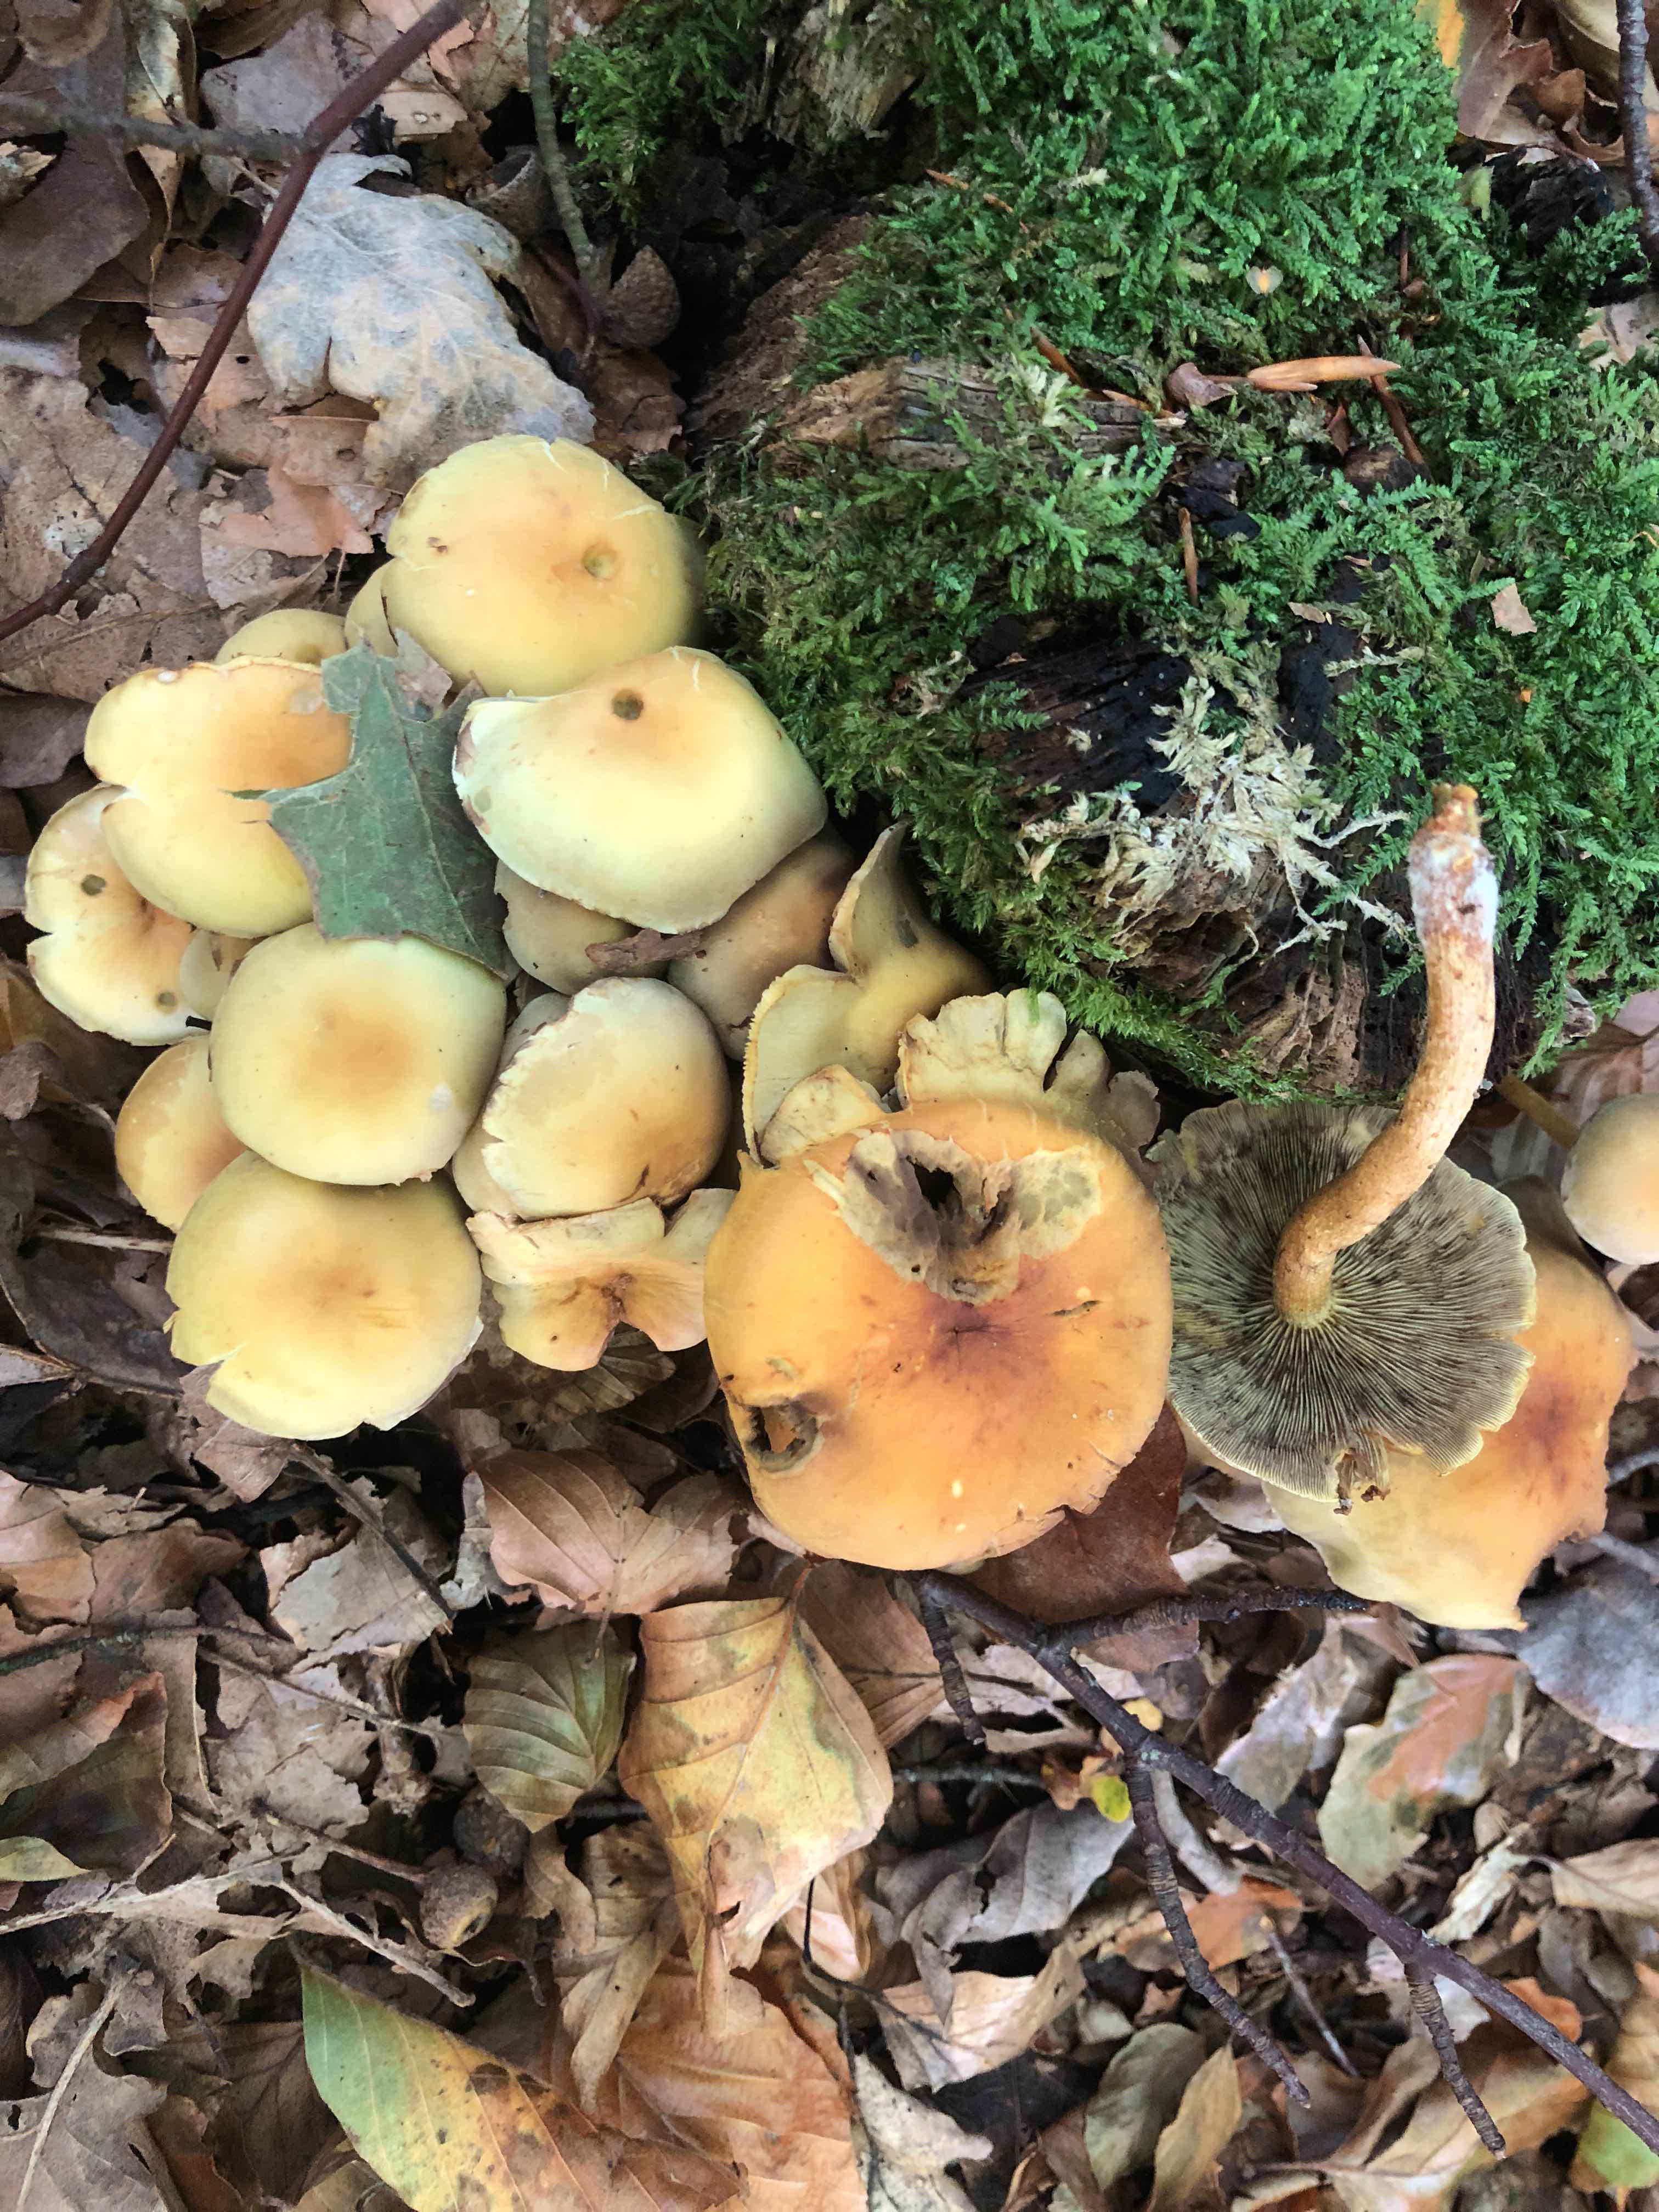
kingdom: Fungi
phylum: Basidiomycota
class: Agaricomycetes
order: Agaricales
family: Strophariaceae
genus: Hypholoma
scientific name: Hypholoma fasciculare
